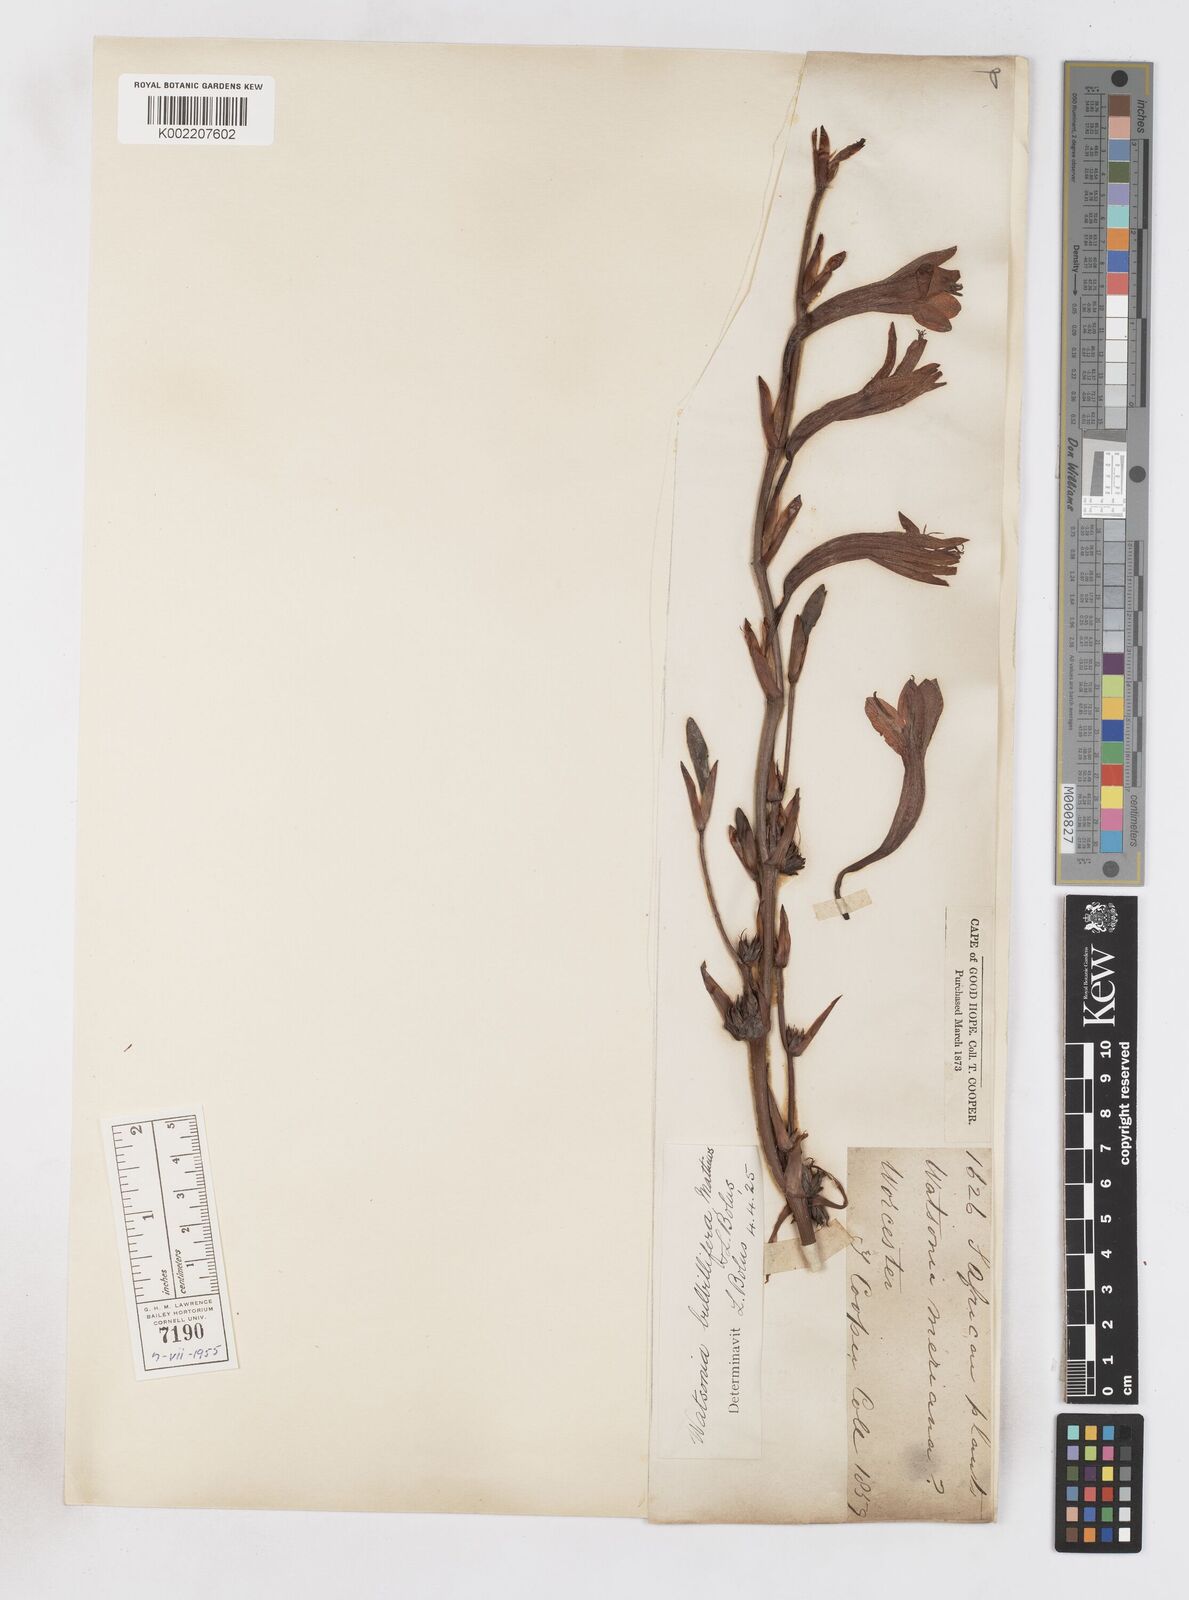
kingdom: Plantae
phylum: Tracheophyta
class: Liliopsida
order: Asparagales
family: Iridaceae
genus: Watsonia
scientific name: Watsonia meriana
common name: Bulbil bugle-lily
